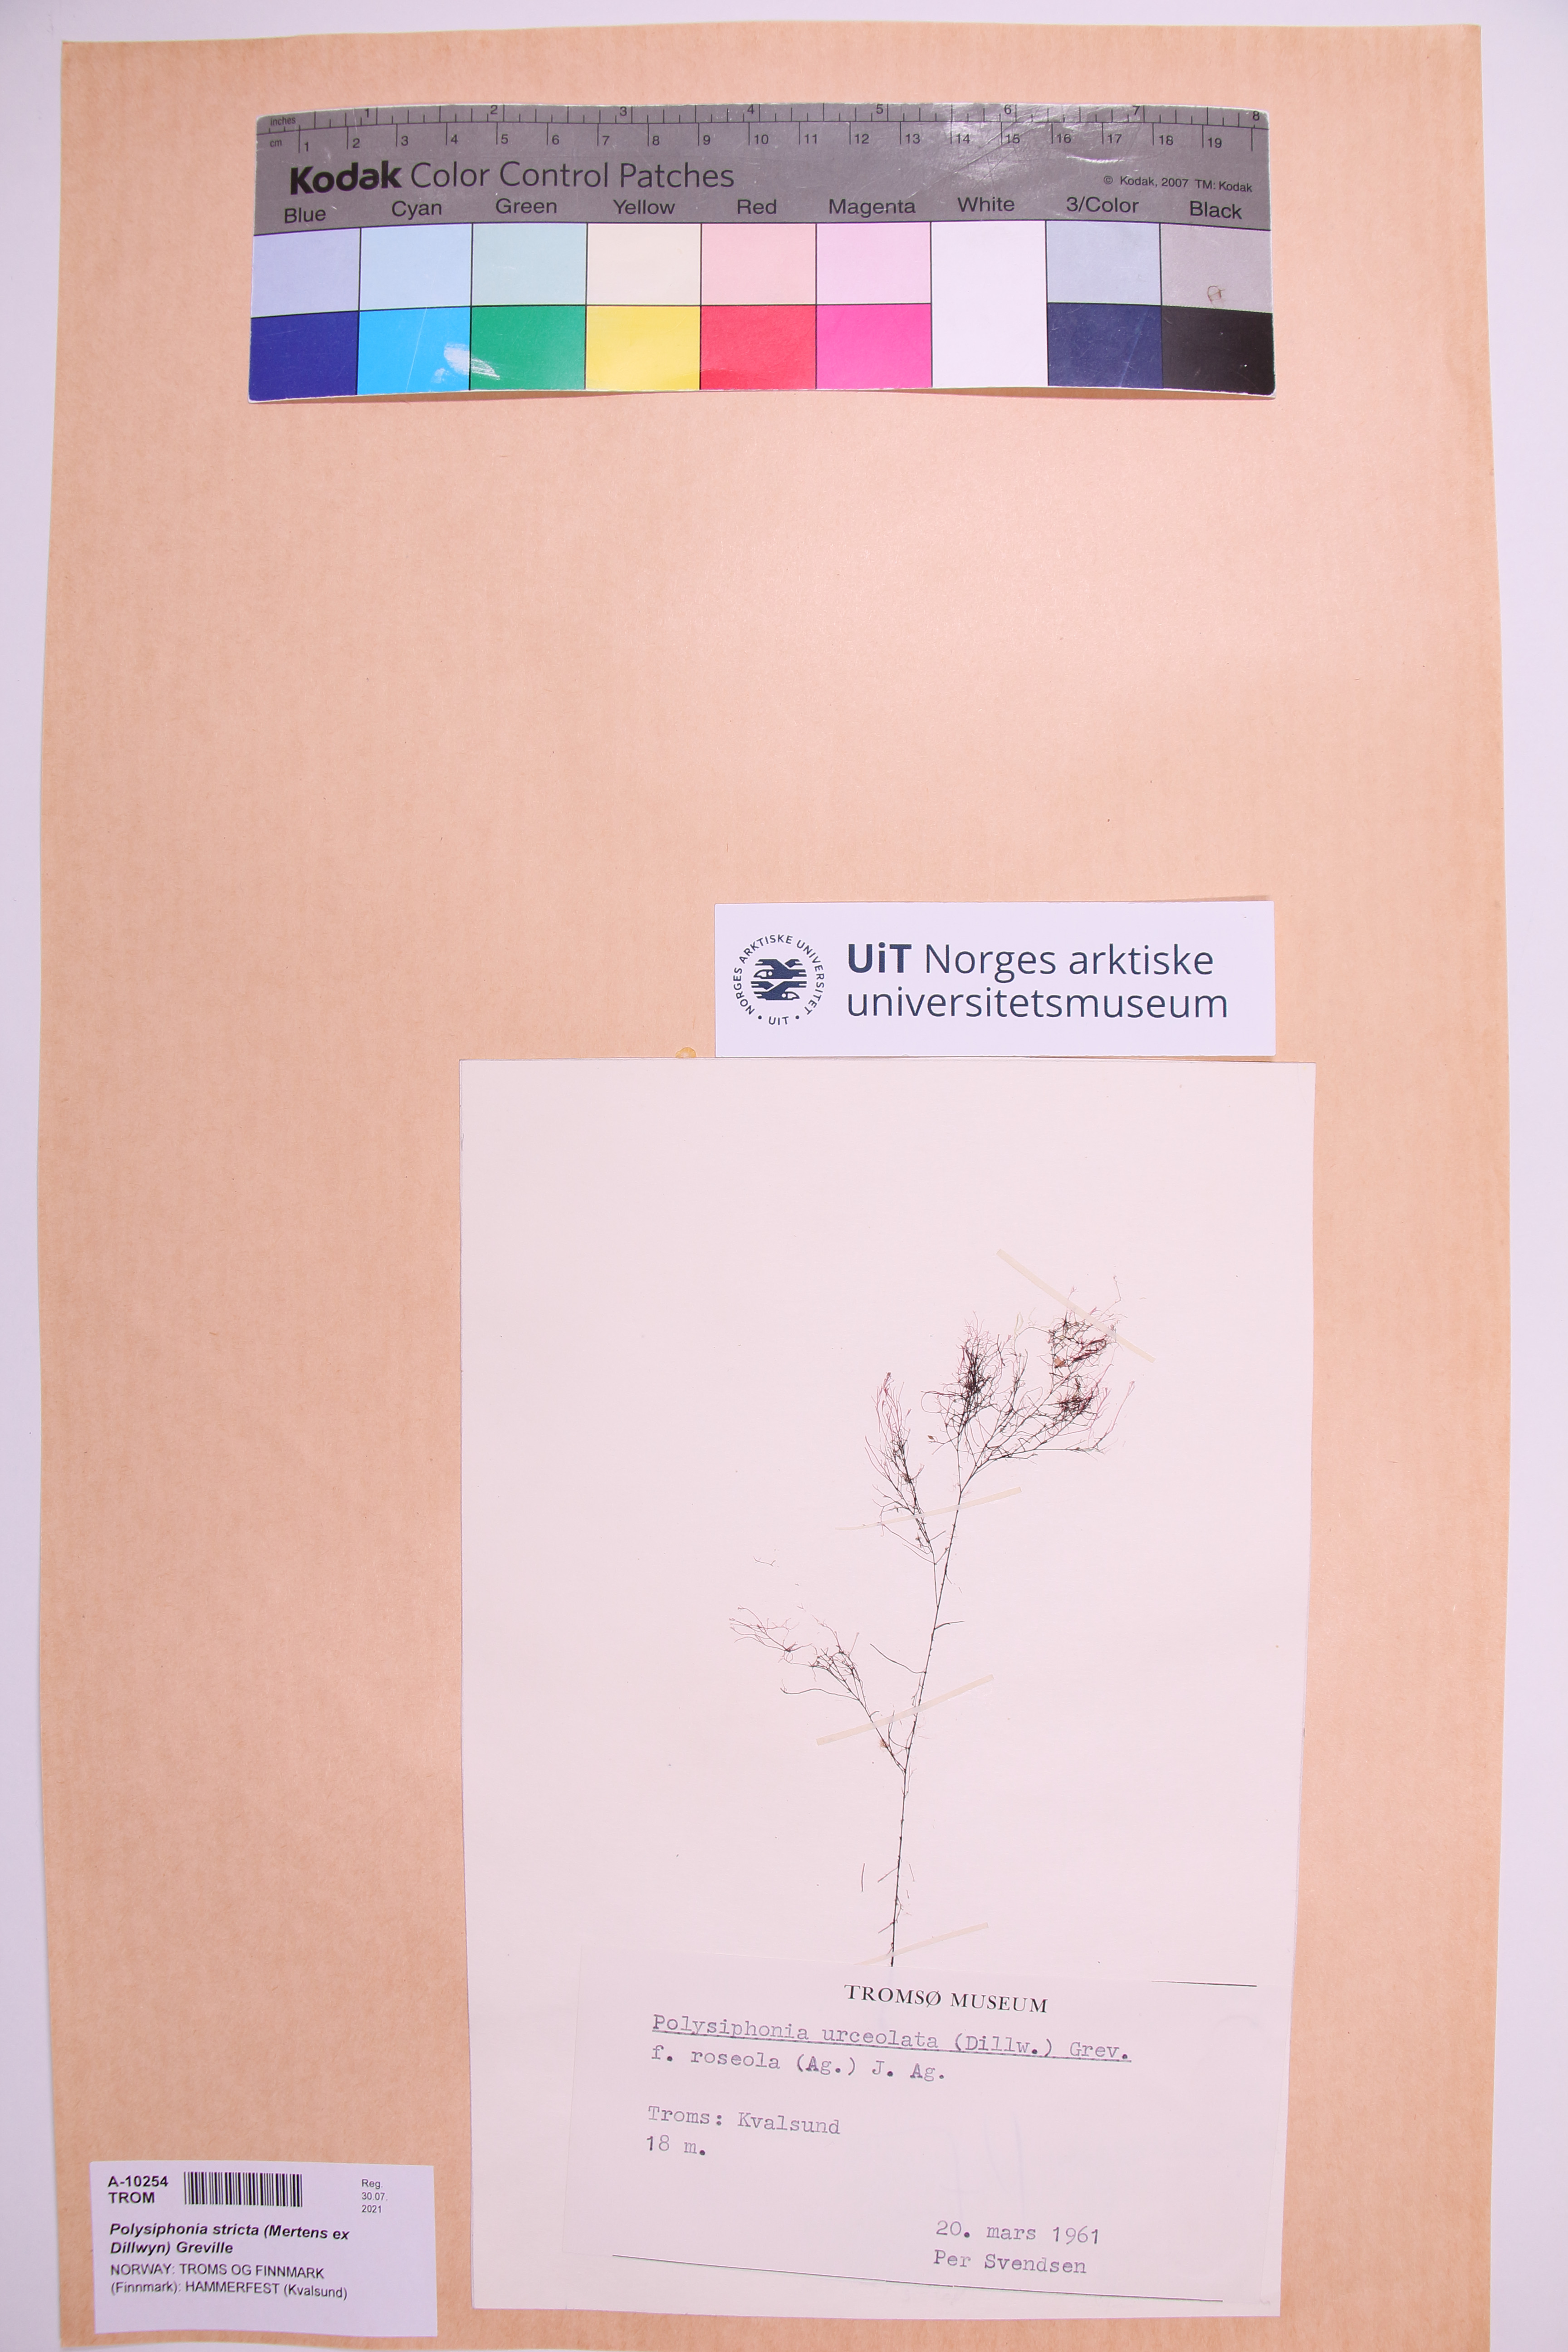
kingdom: Plantae
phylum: Rhodophyta
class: Florideophyceae
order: Ceramiales
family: Rhodomelaceae
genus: Polysiphonia
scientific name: Polysiphonia stricta
